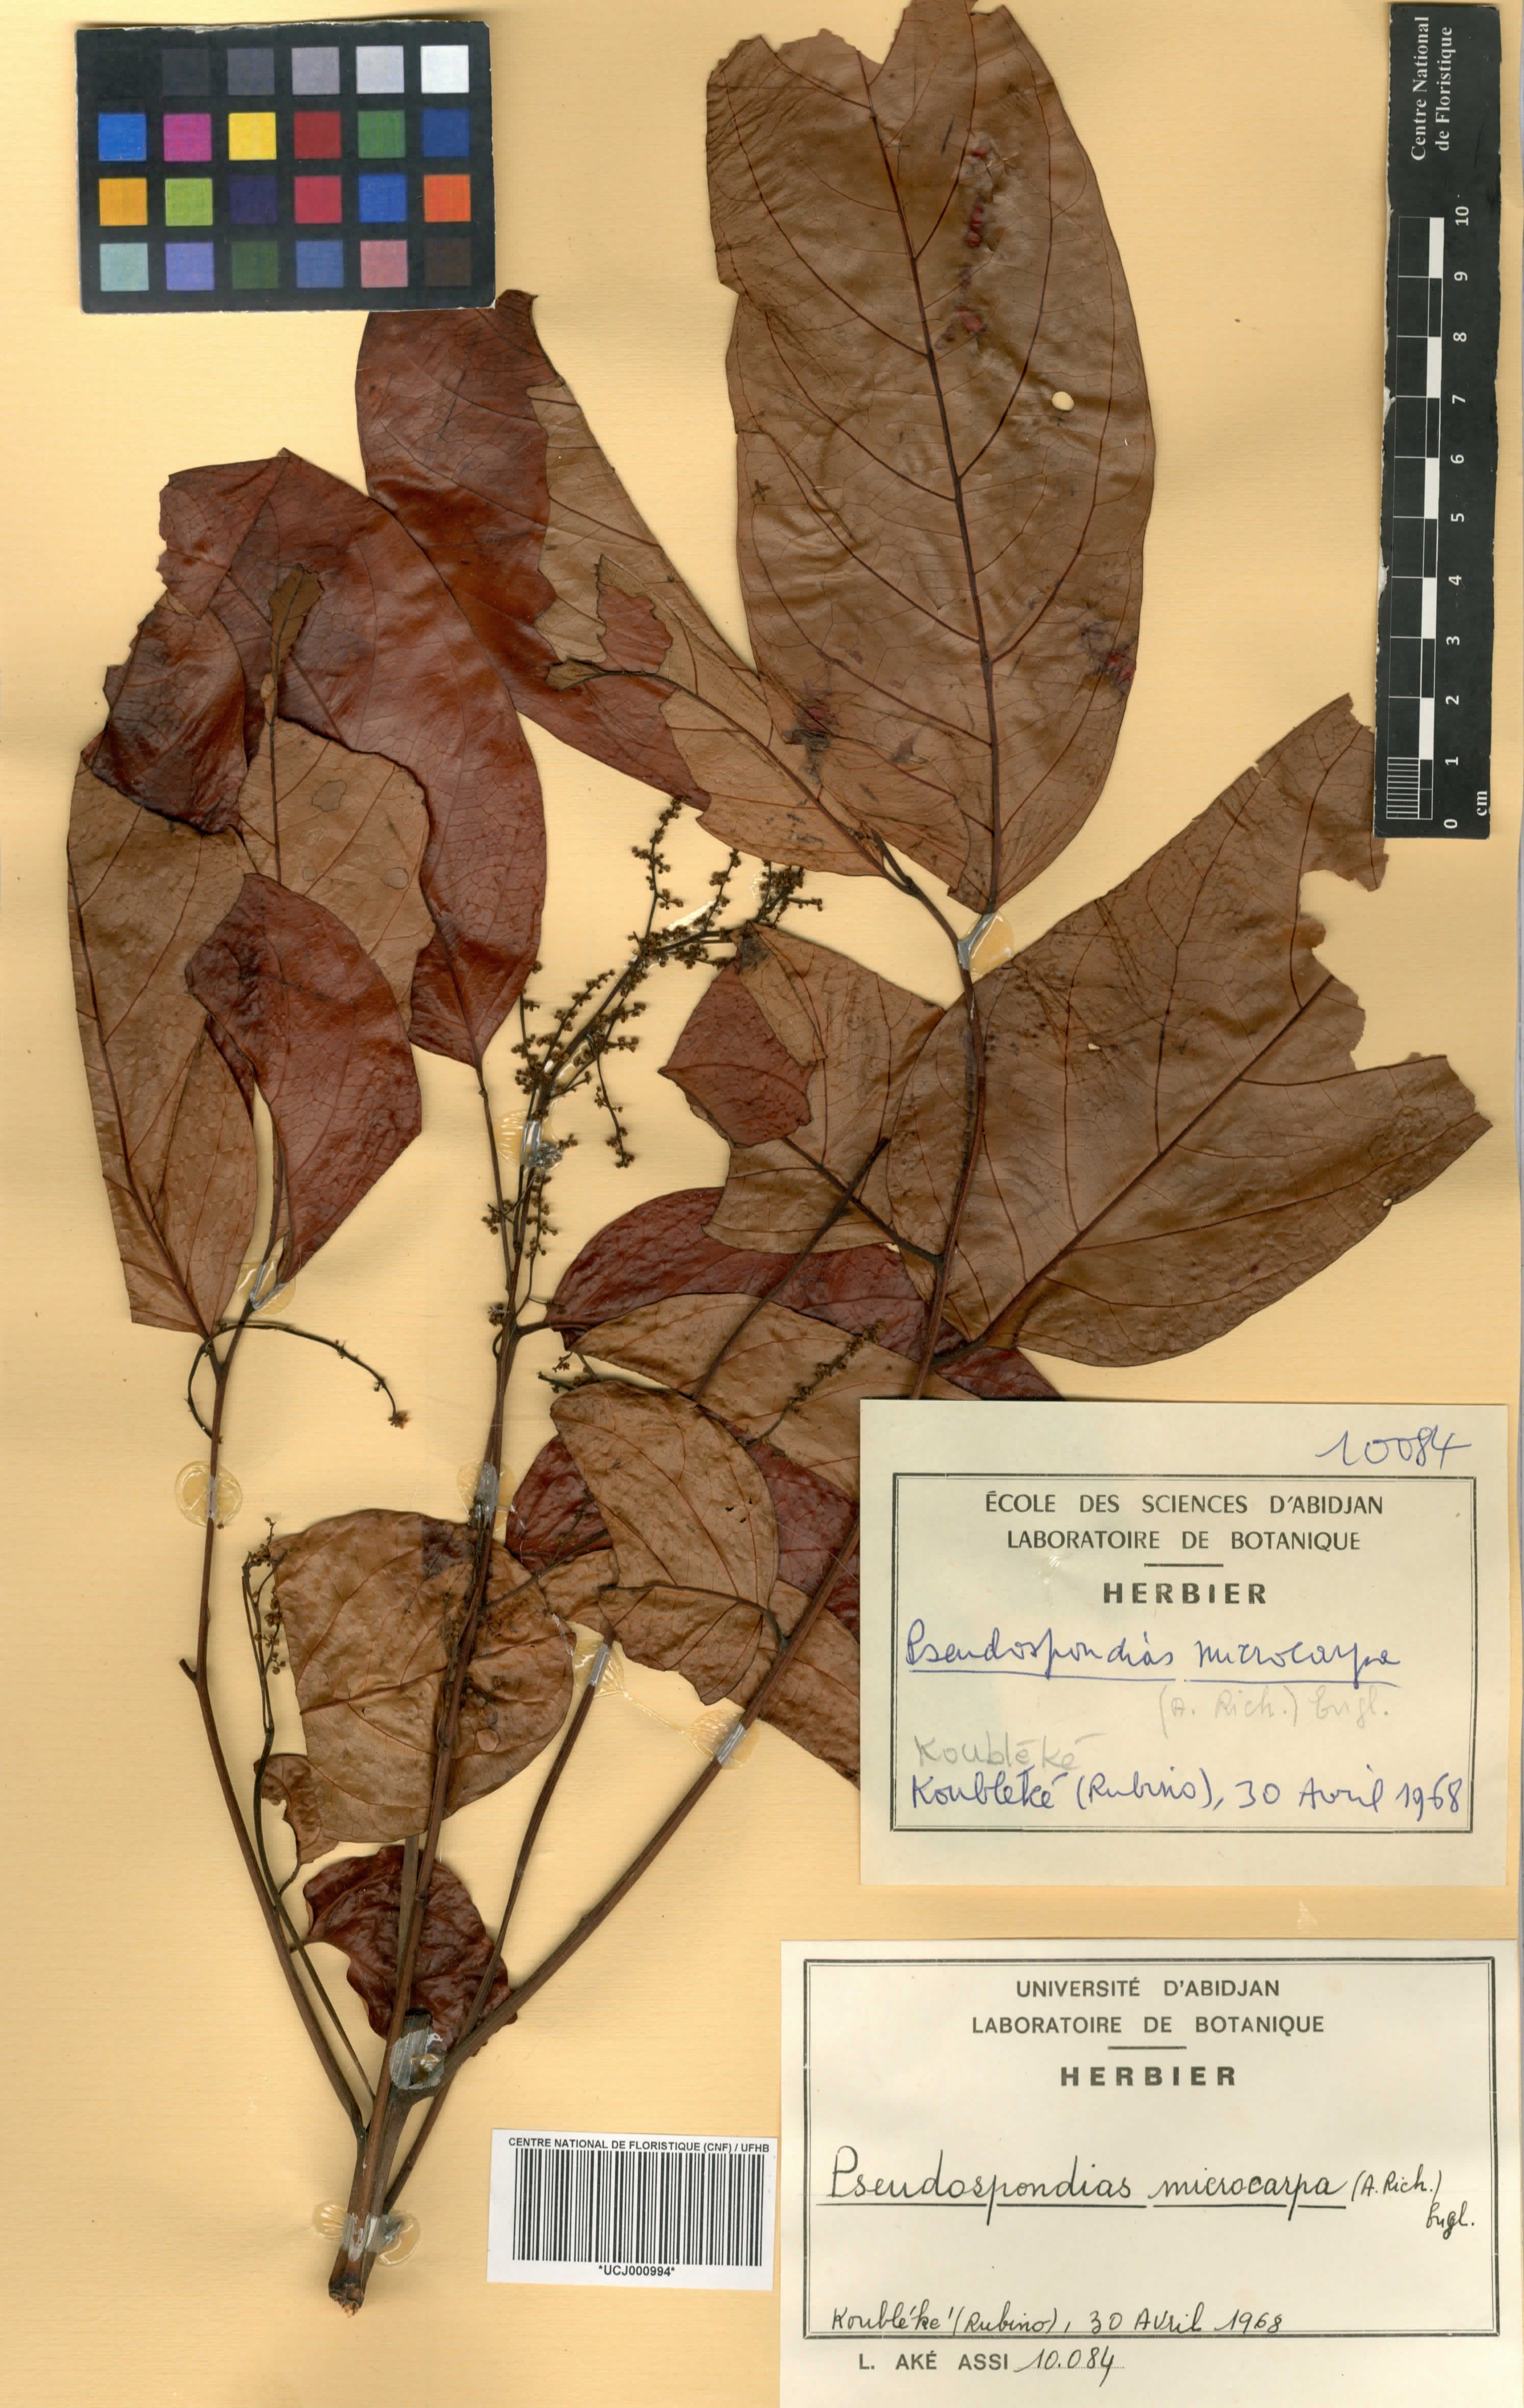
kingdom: Plantae
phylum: Tracheophyta
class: Magnoliopsida
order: Sapindales
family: Anacardiaceae
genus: Pseudospondias
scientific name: Pseudospondias microcarpa
